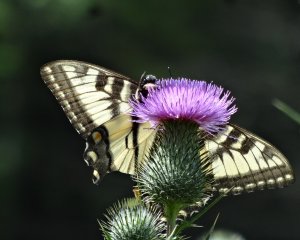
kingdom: Animalia
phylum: Arthropoda
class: Insecta
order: Lepidoptera
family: Papilionidae
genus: Pterourus
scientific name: Pterourus glaucus
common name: Eastern Tiger Swallowtail
